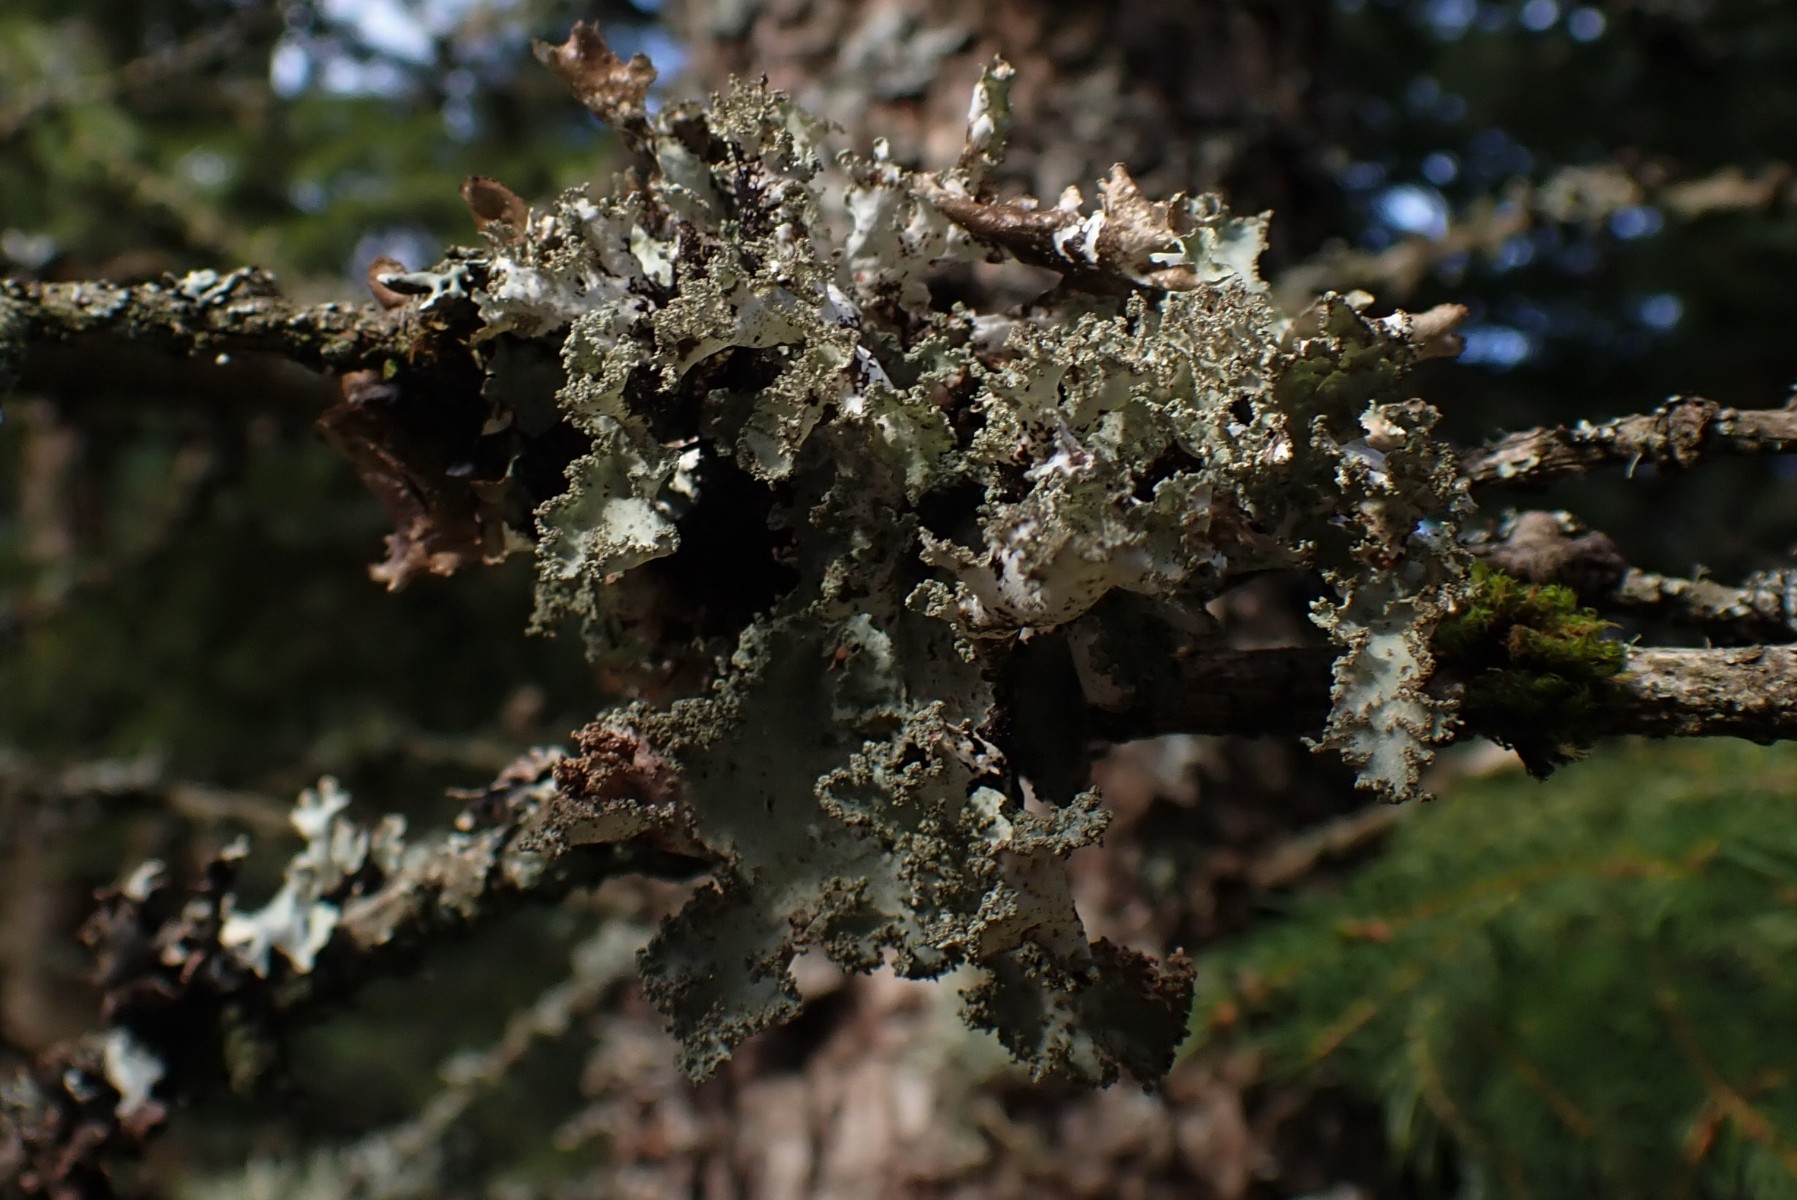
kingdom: Fungi
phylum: Ascomycota
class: Lecanoromycetes
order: Lecanorales
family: Parmeliaceae
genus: Platismatia
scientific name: Platismatia glauca
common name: blågrå papirlav
